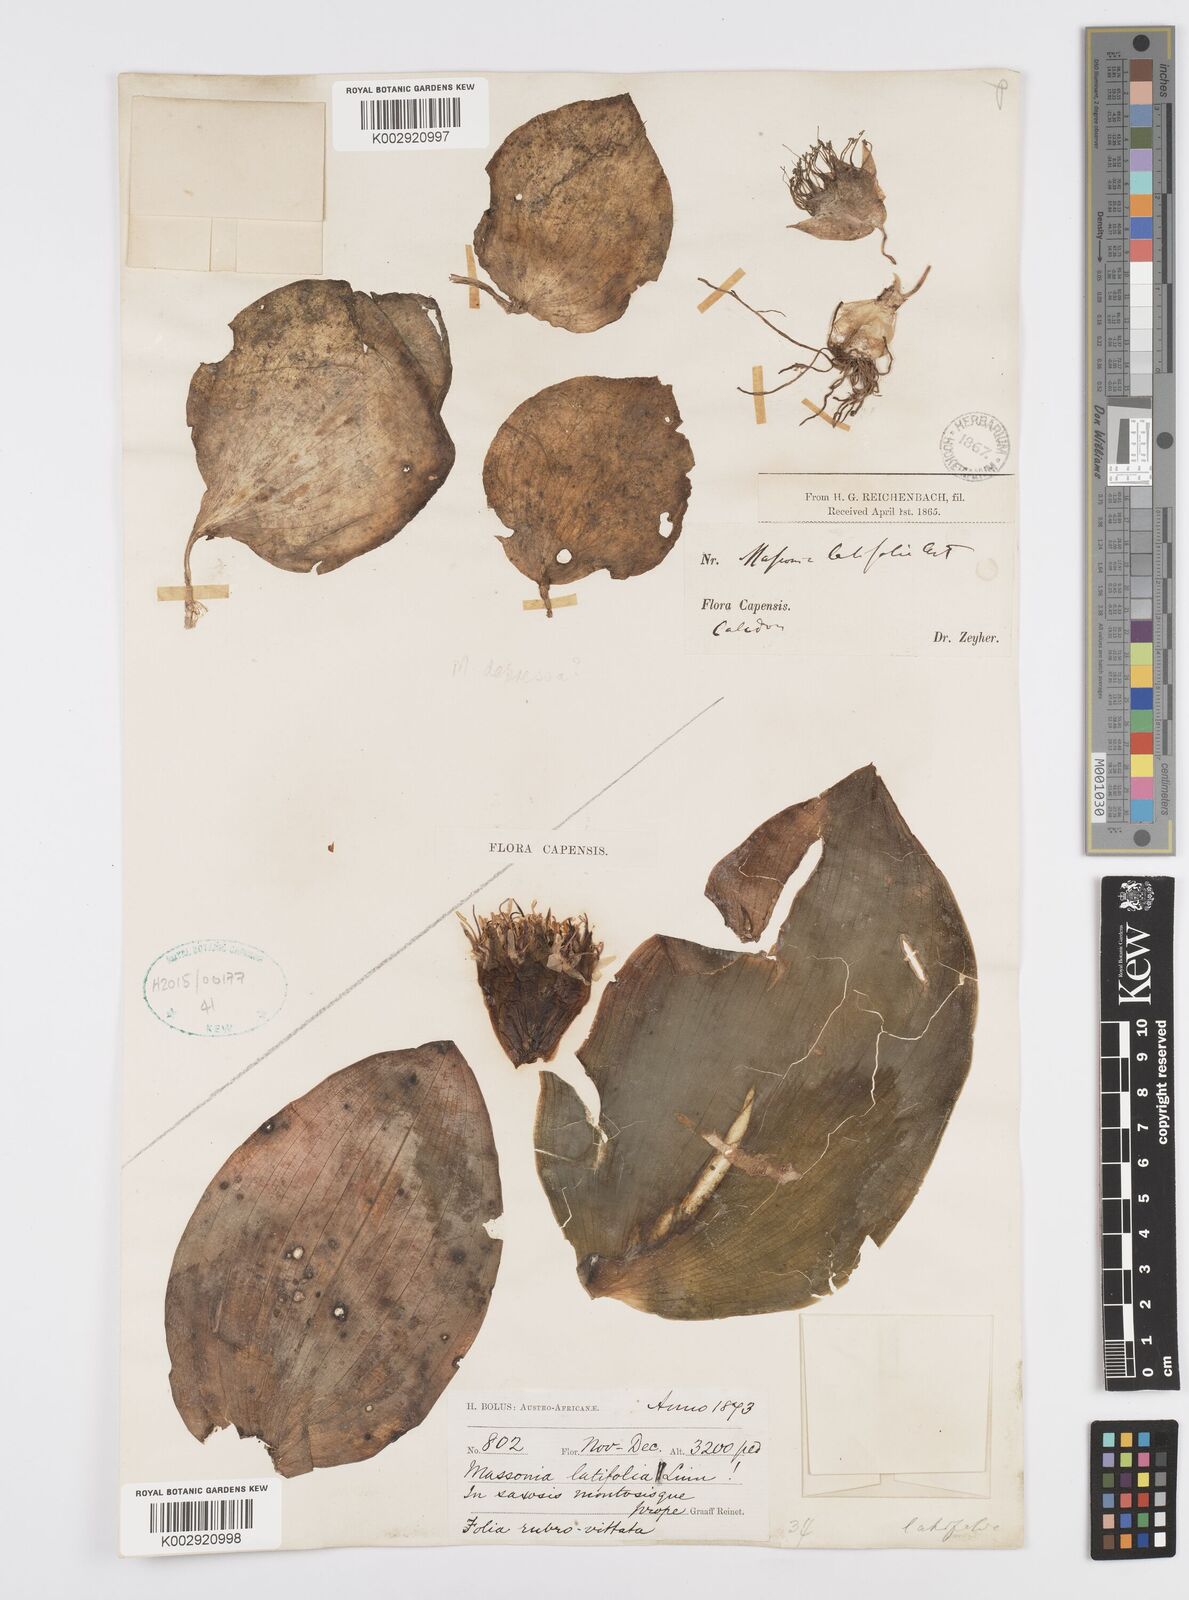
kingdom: Plantae
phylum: Tracheophyta
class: Liliopsida
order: Asparagales
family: Asparagaceae
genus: Massonia
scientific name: Massonia
